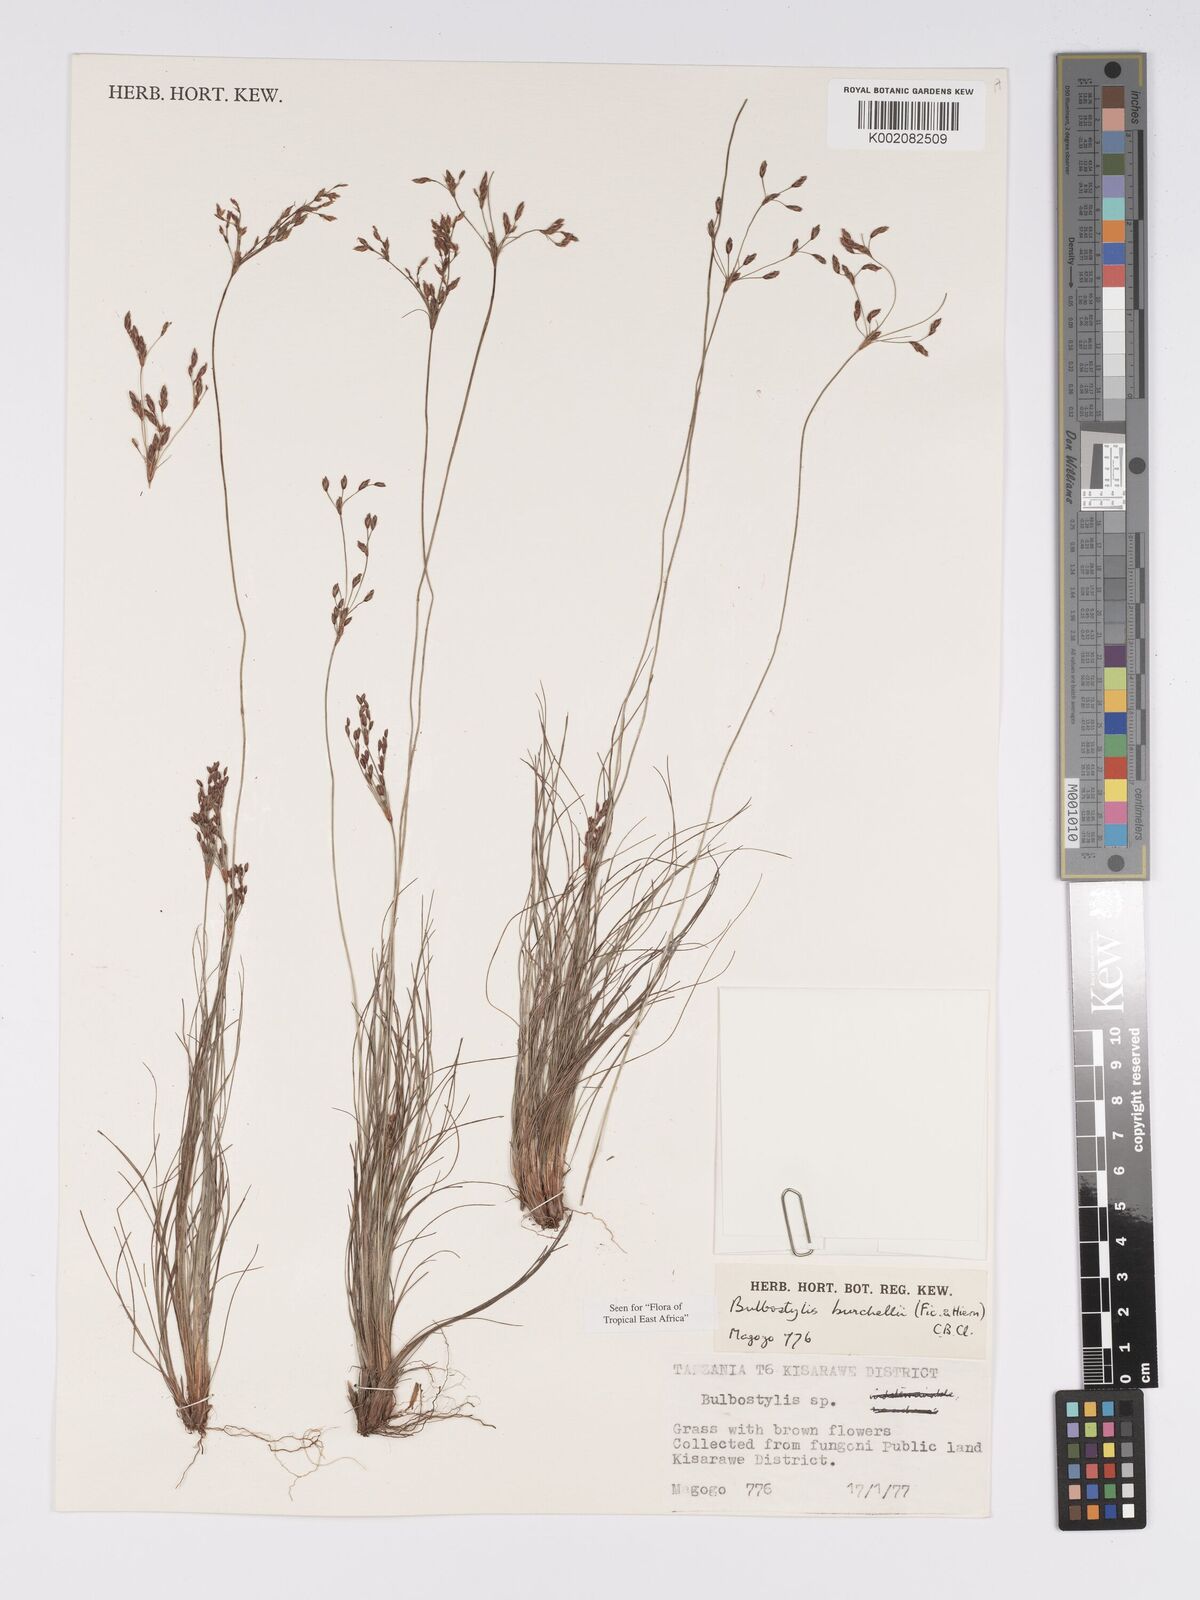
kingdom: Plantae
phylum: Tracheophyta
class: Liliopsida
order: Poales
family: Cyperaceae
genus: Bulbostylis
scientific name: Bulbostylis burchellii
